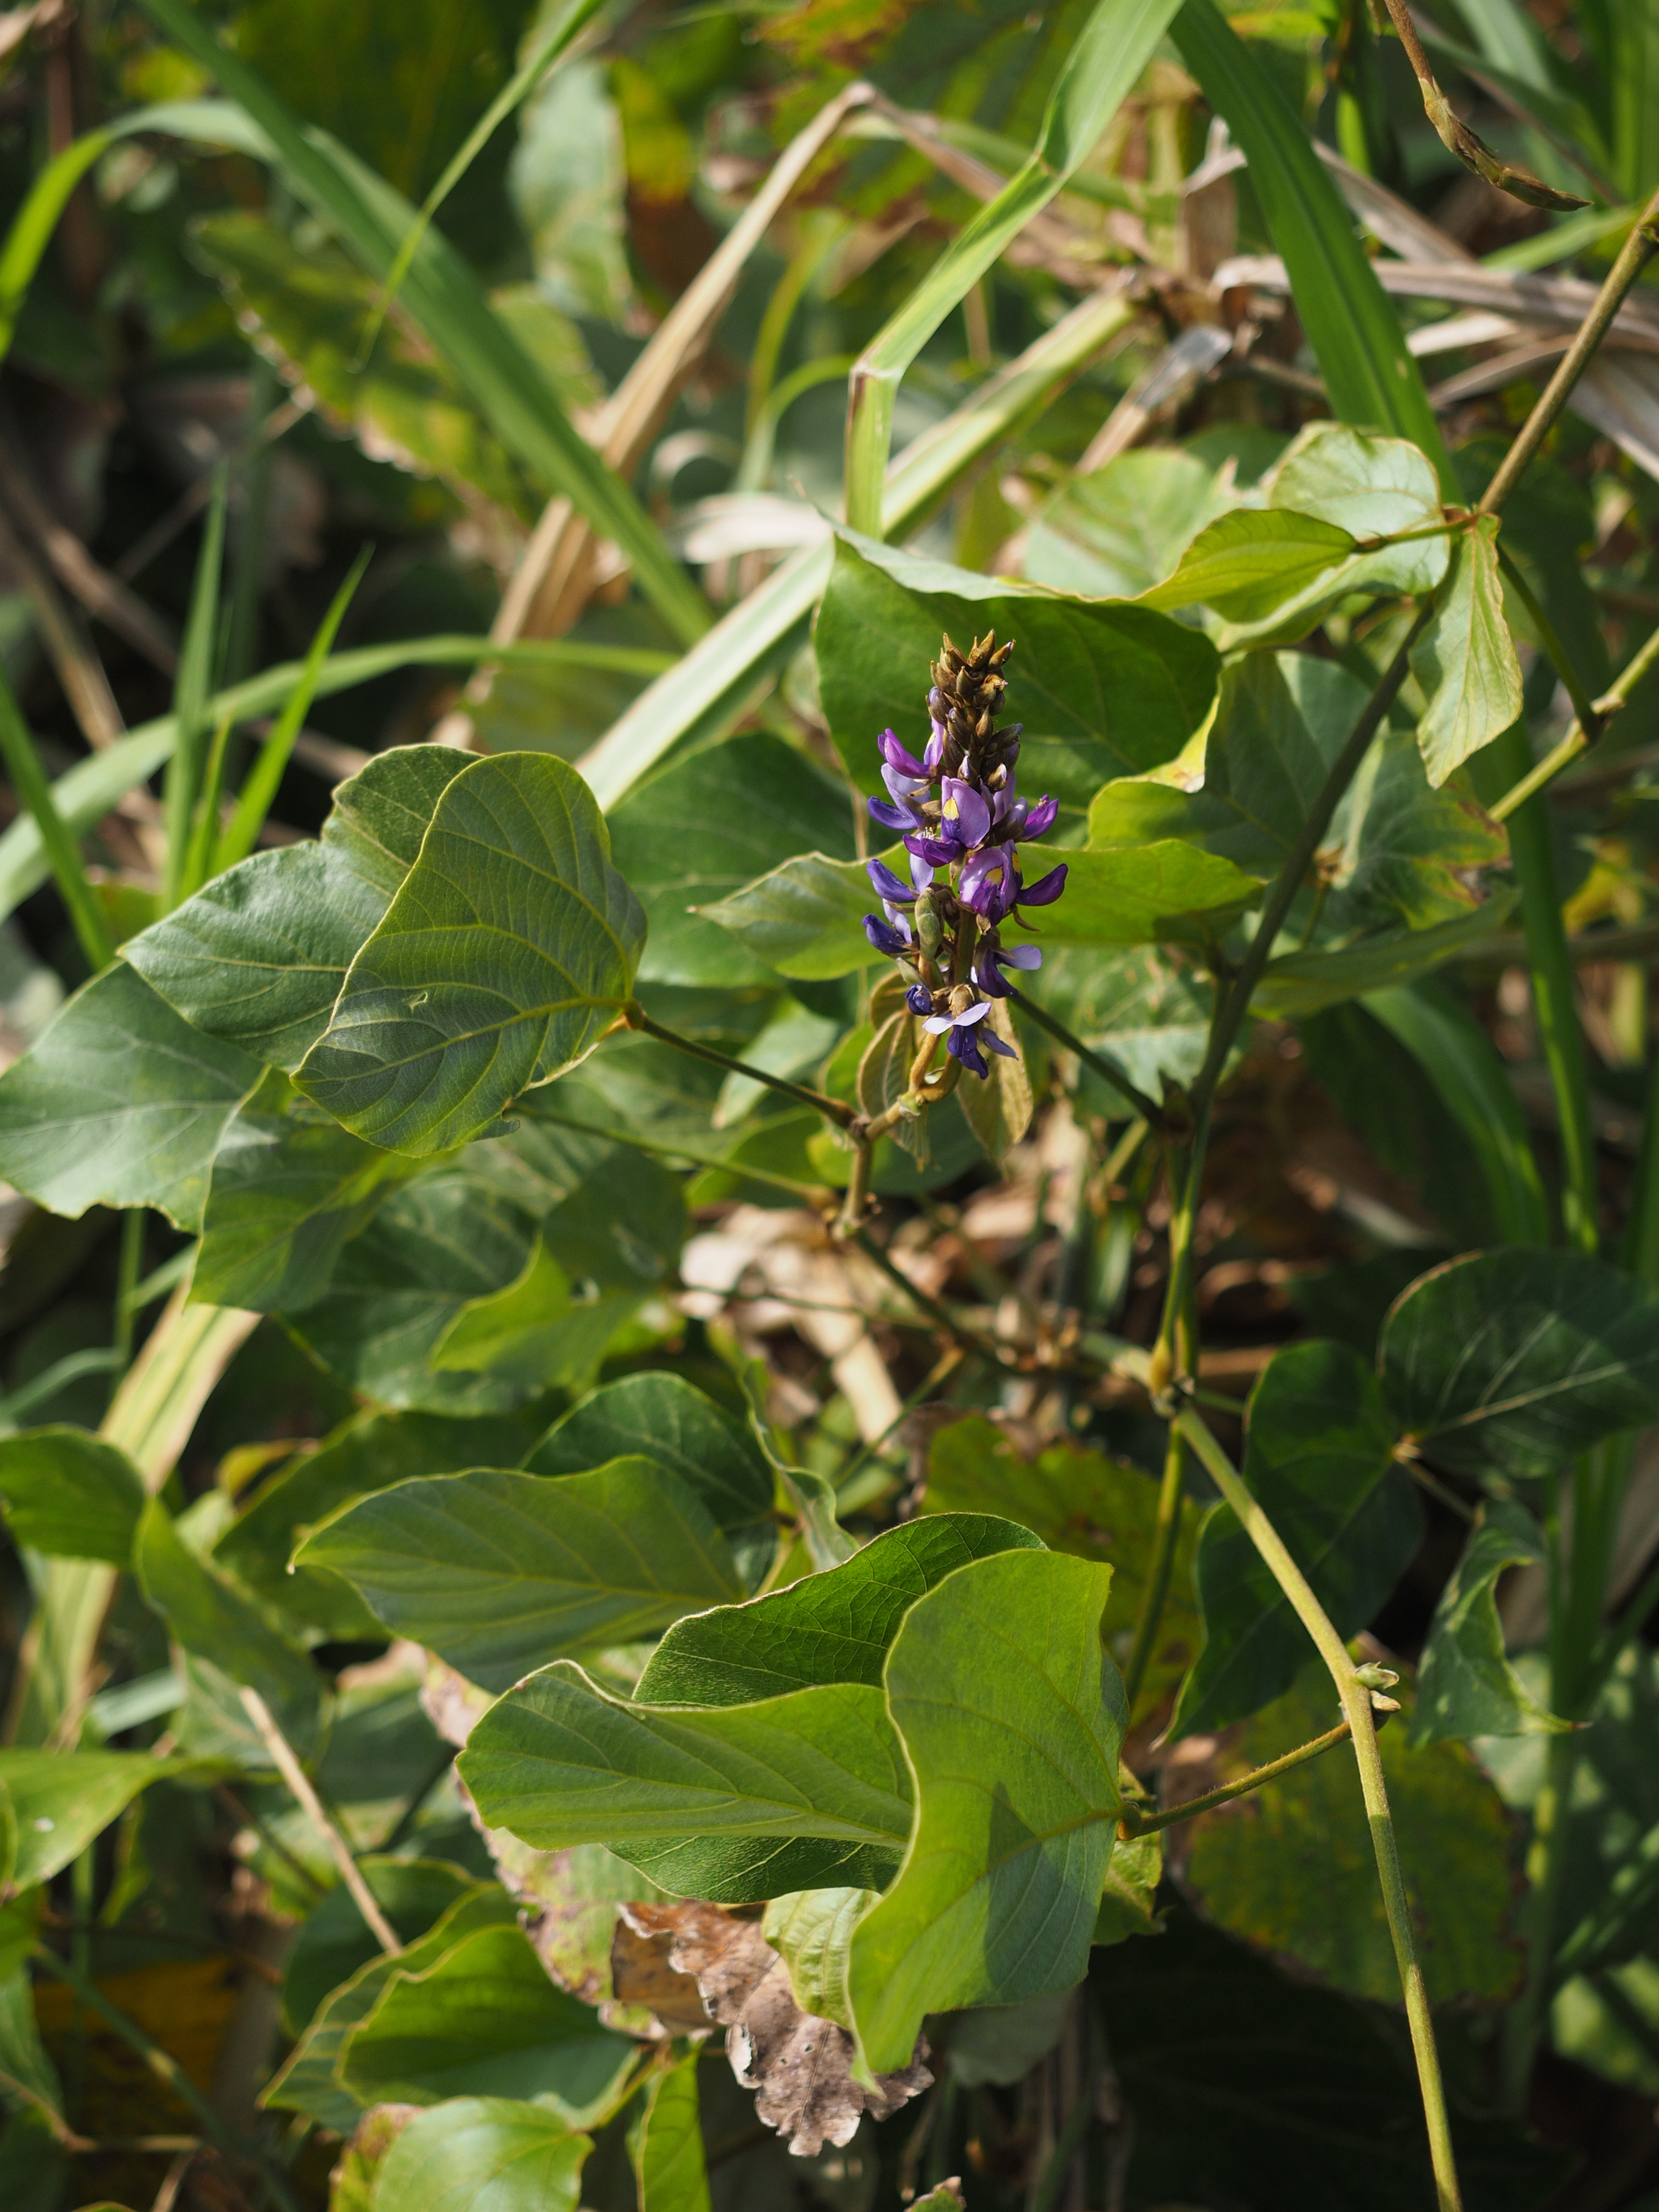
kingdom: Plantae
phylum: Tracheophyta
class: Magnoliopsida
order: Fabales
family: Fabaceae
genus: Pueraria
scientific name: Pueraria montana
